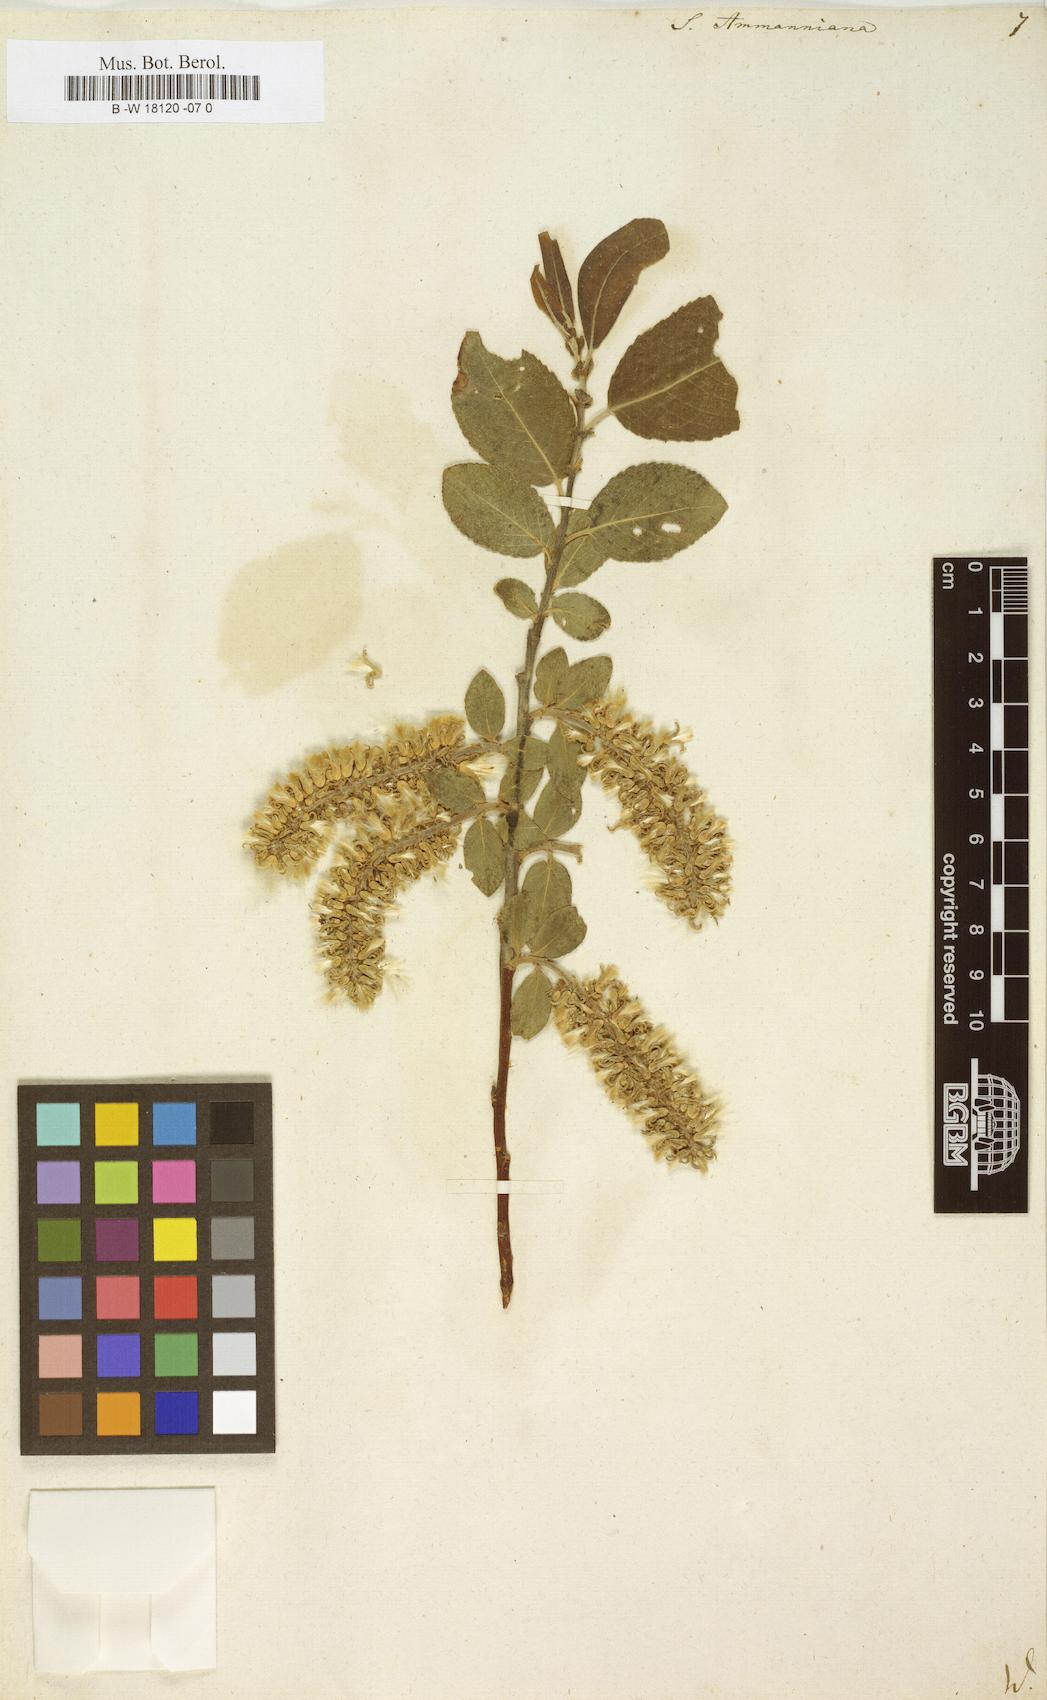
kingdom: Plantae
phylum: Tracheophyta
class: Magnoliopsida
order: Malpighiales
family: Salicaceae
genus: Salix
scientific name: Salix myrsinifolia
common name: Dark-leaved willow
